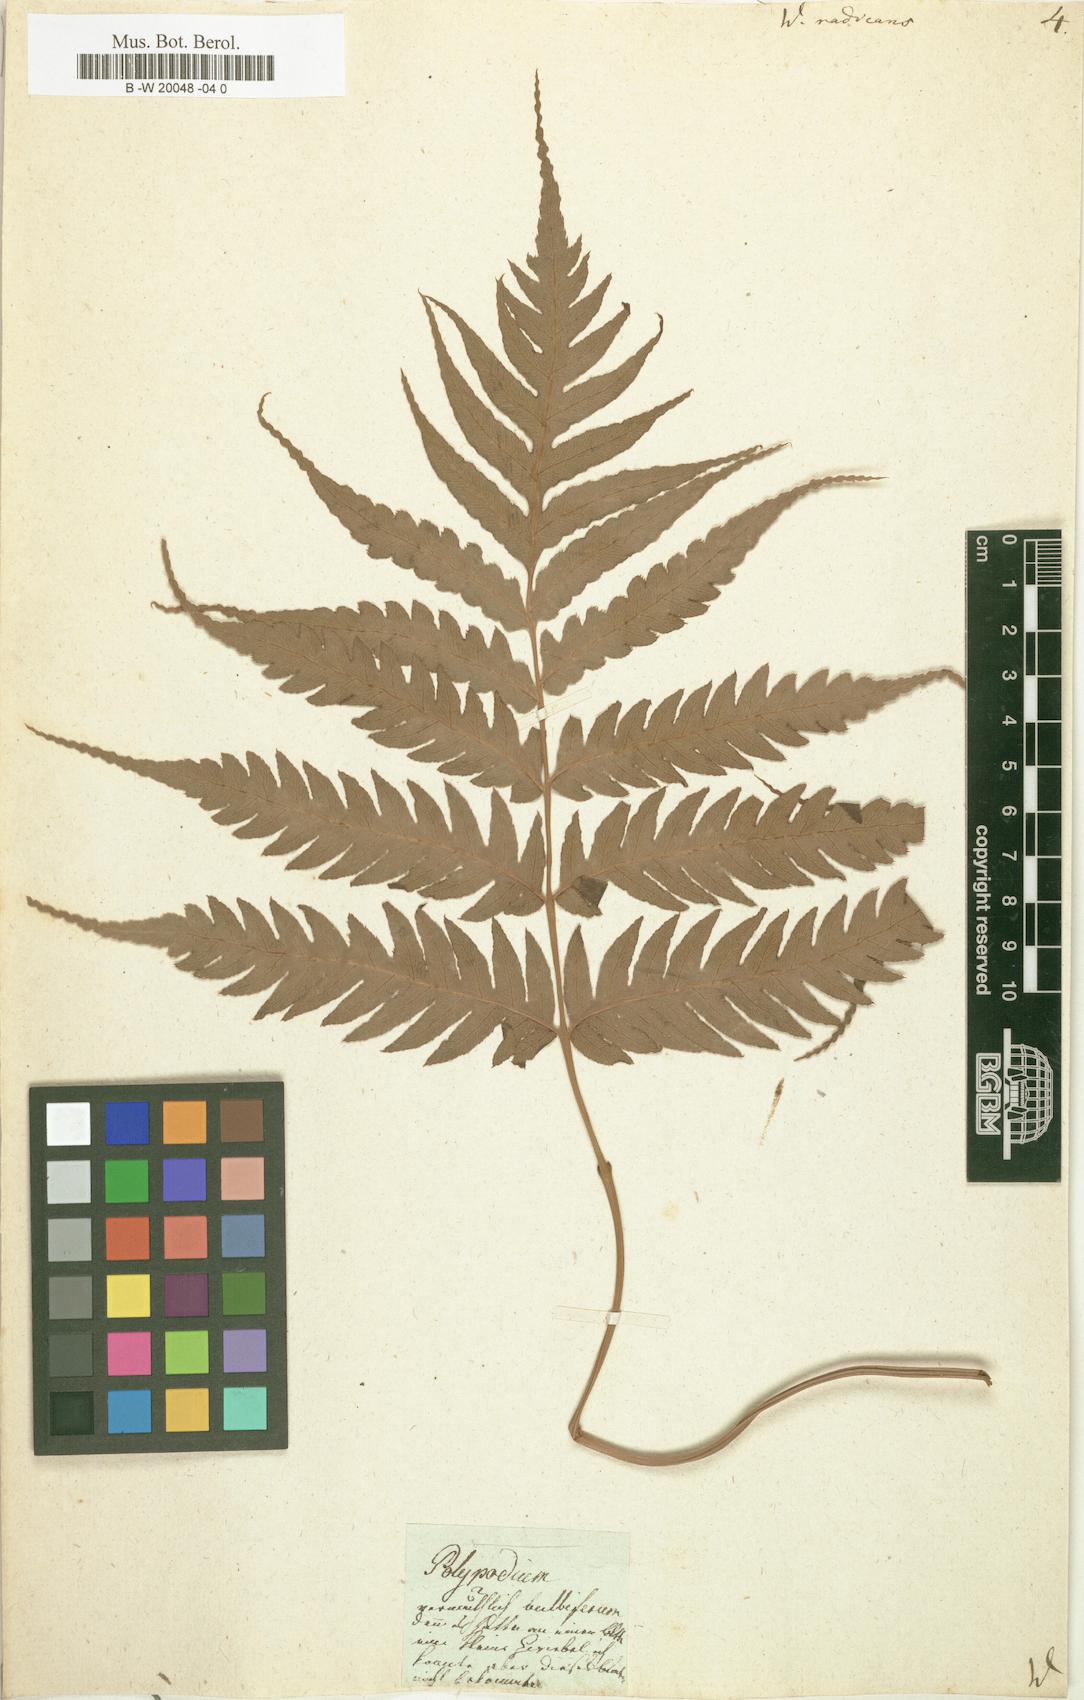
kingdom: Plantae
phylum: Tracheophyta
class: Polypodiopsida
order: Polypodiales
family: Blechnaceae
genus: Woodwardia
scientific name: Woodwardia radicans
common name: Rooting chainfern
